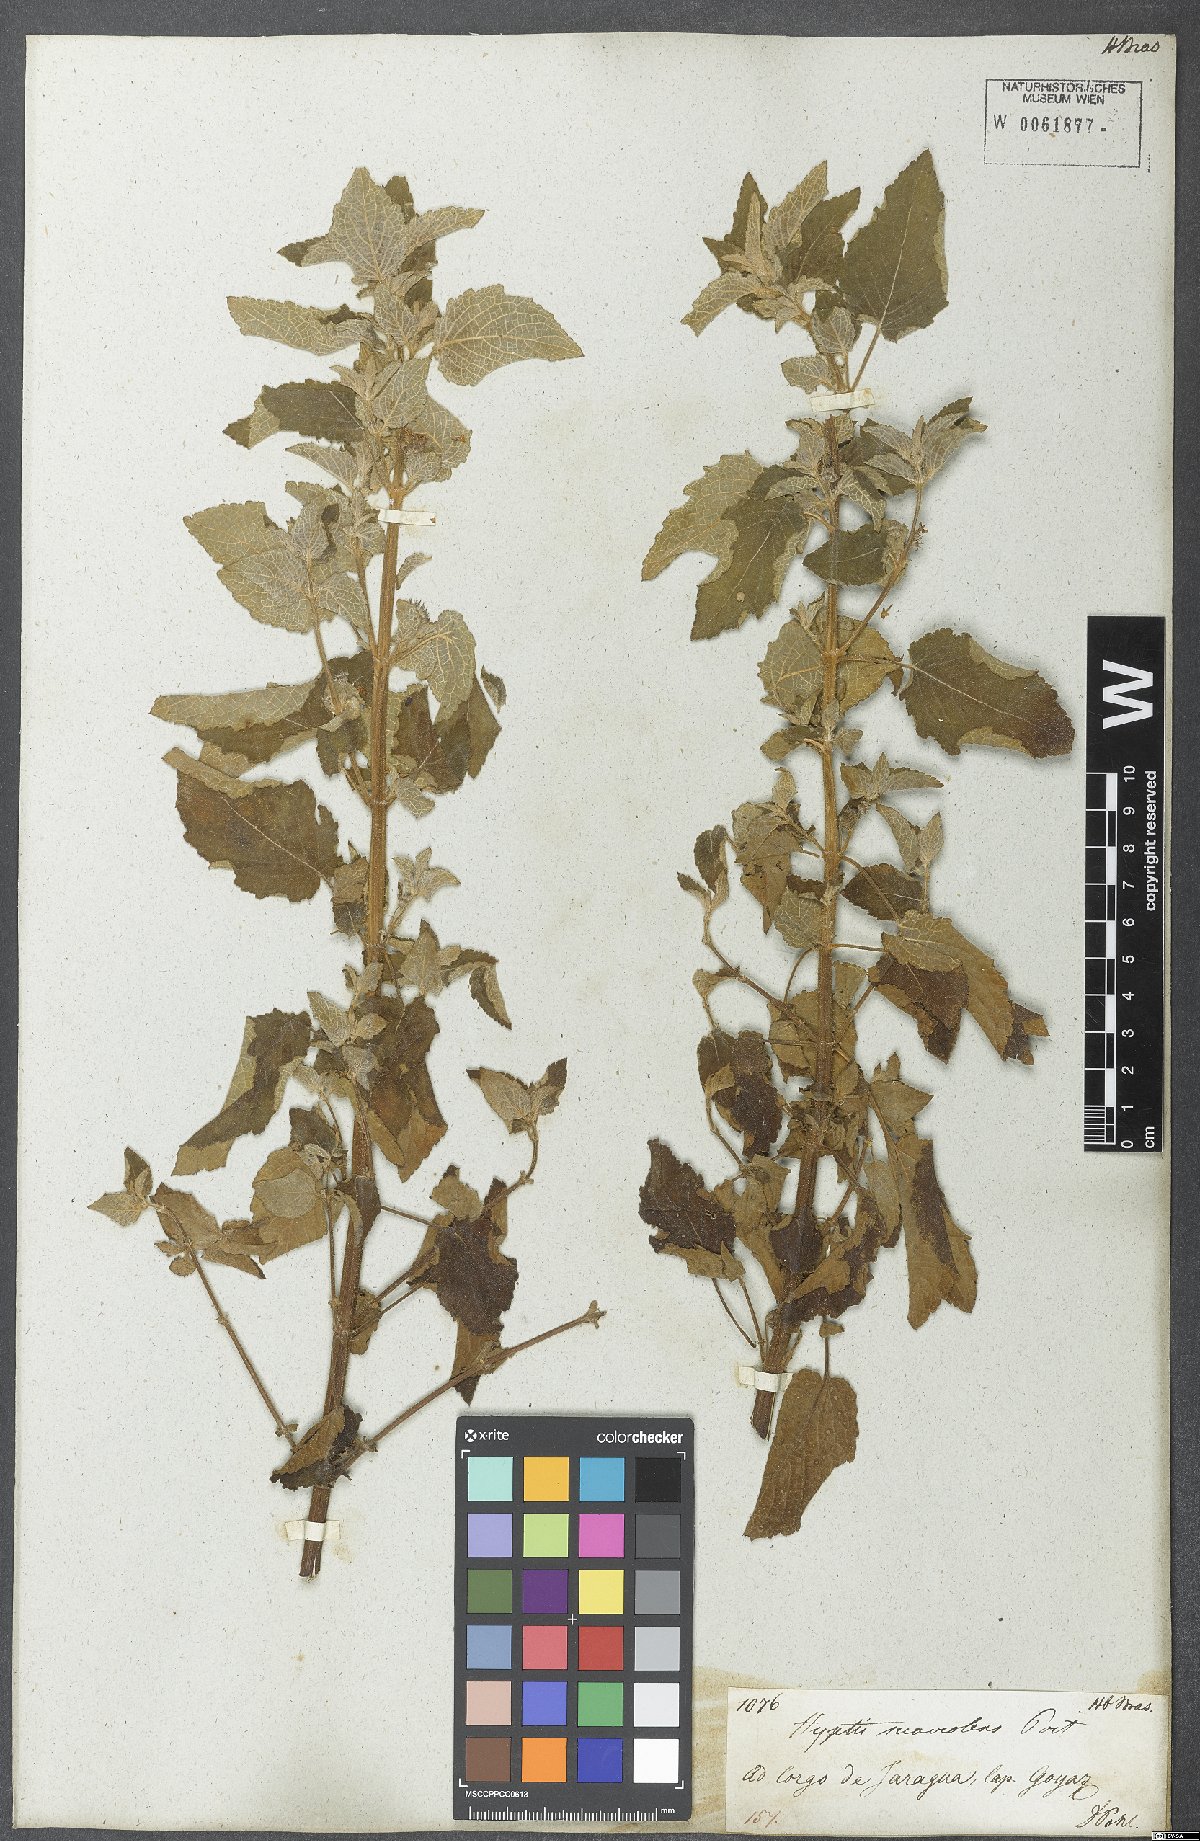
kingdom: Plantae
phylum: Tracheophyta
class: Magnoliopsida
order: Lamiales
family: Lamiaceae
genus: Mesosphaerum
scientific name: Mesosphaerum suaveolens
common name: Pignut
